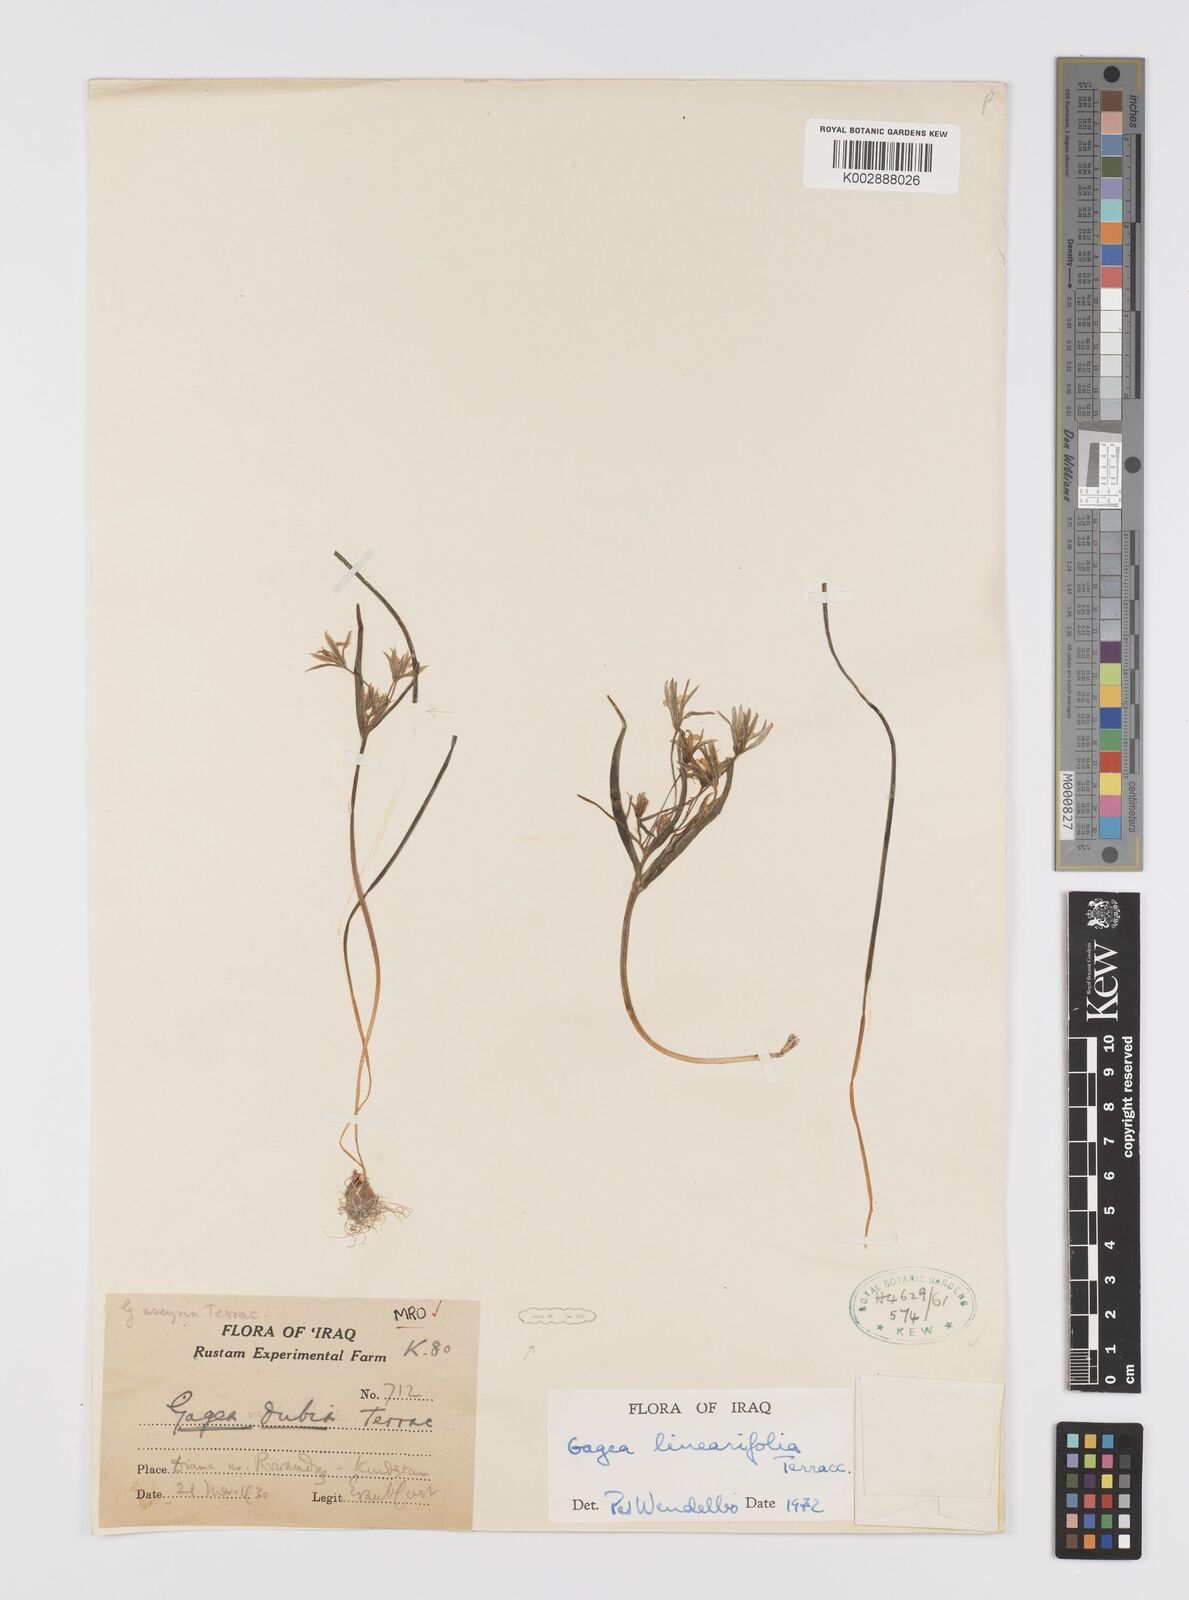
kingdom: Plantae
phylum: Tracheophyta
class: Liliopsida
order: Liliales
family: Liliaceae
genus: Gagea
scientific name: Gagea luteoides
